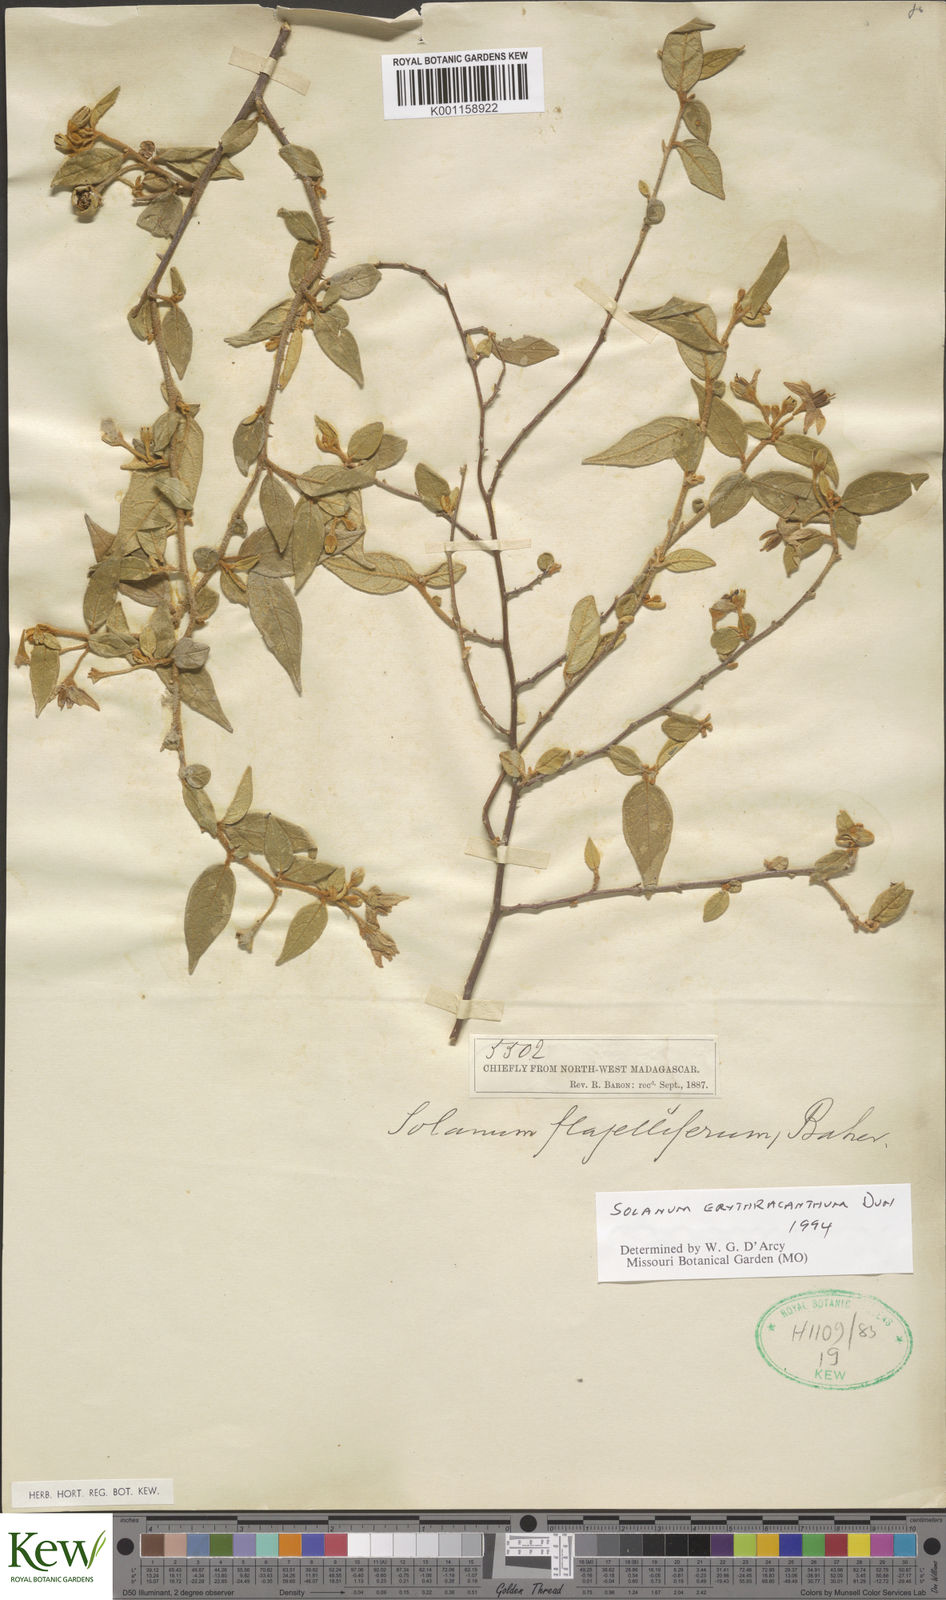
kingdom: Plantae
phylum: Tracheophyta
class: Magnoliopsida
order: Solanales
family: Solanaceae
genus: Solanum
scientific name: Solanum erythracanthum
